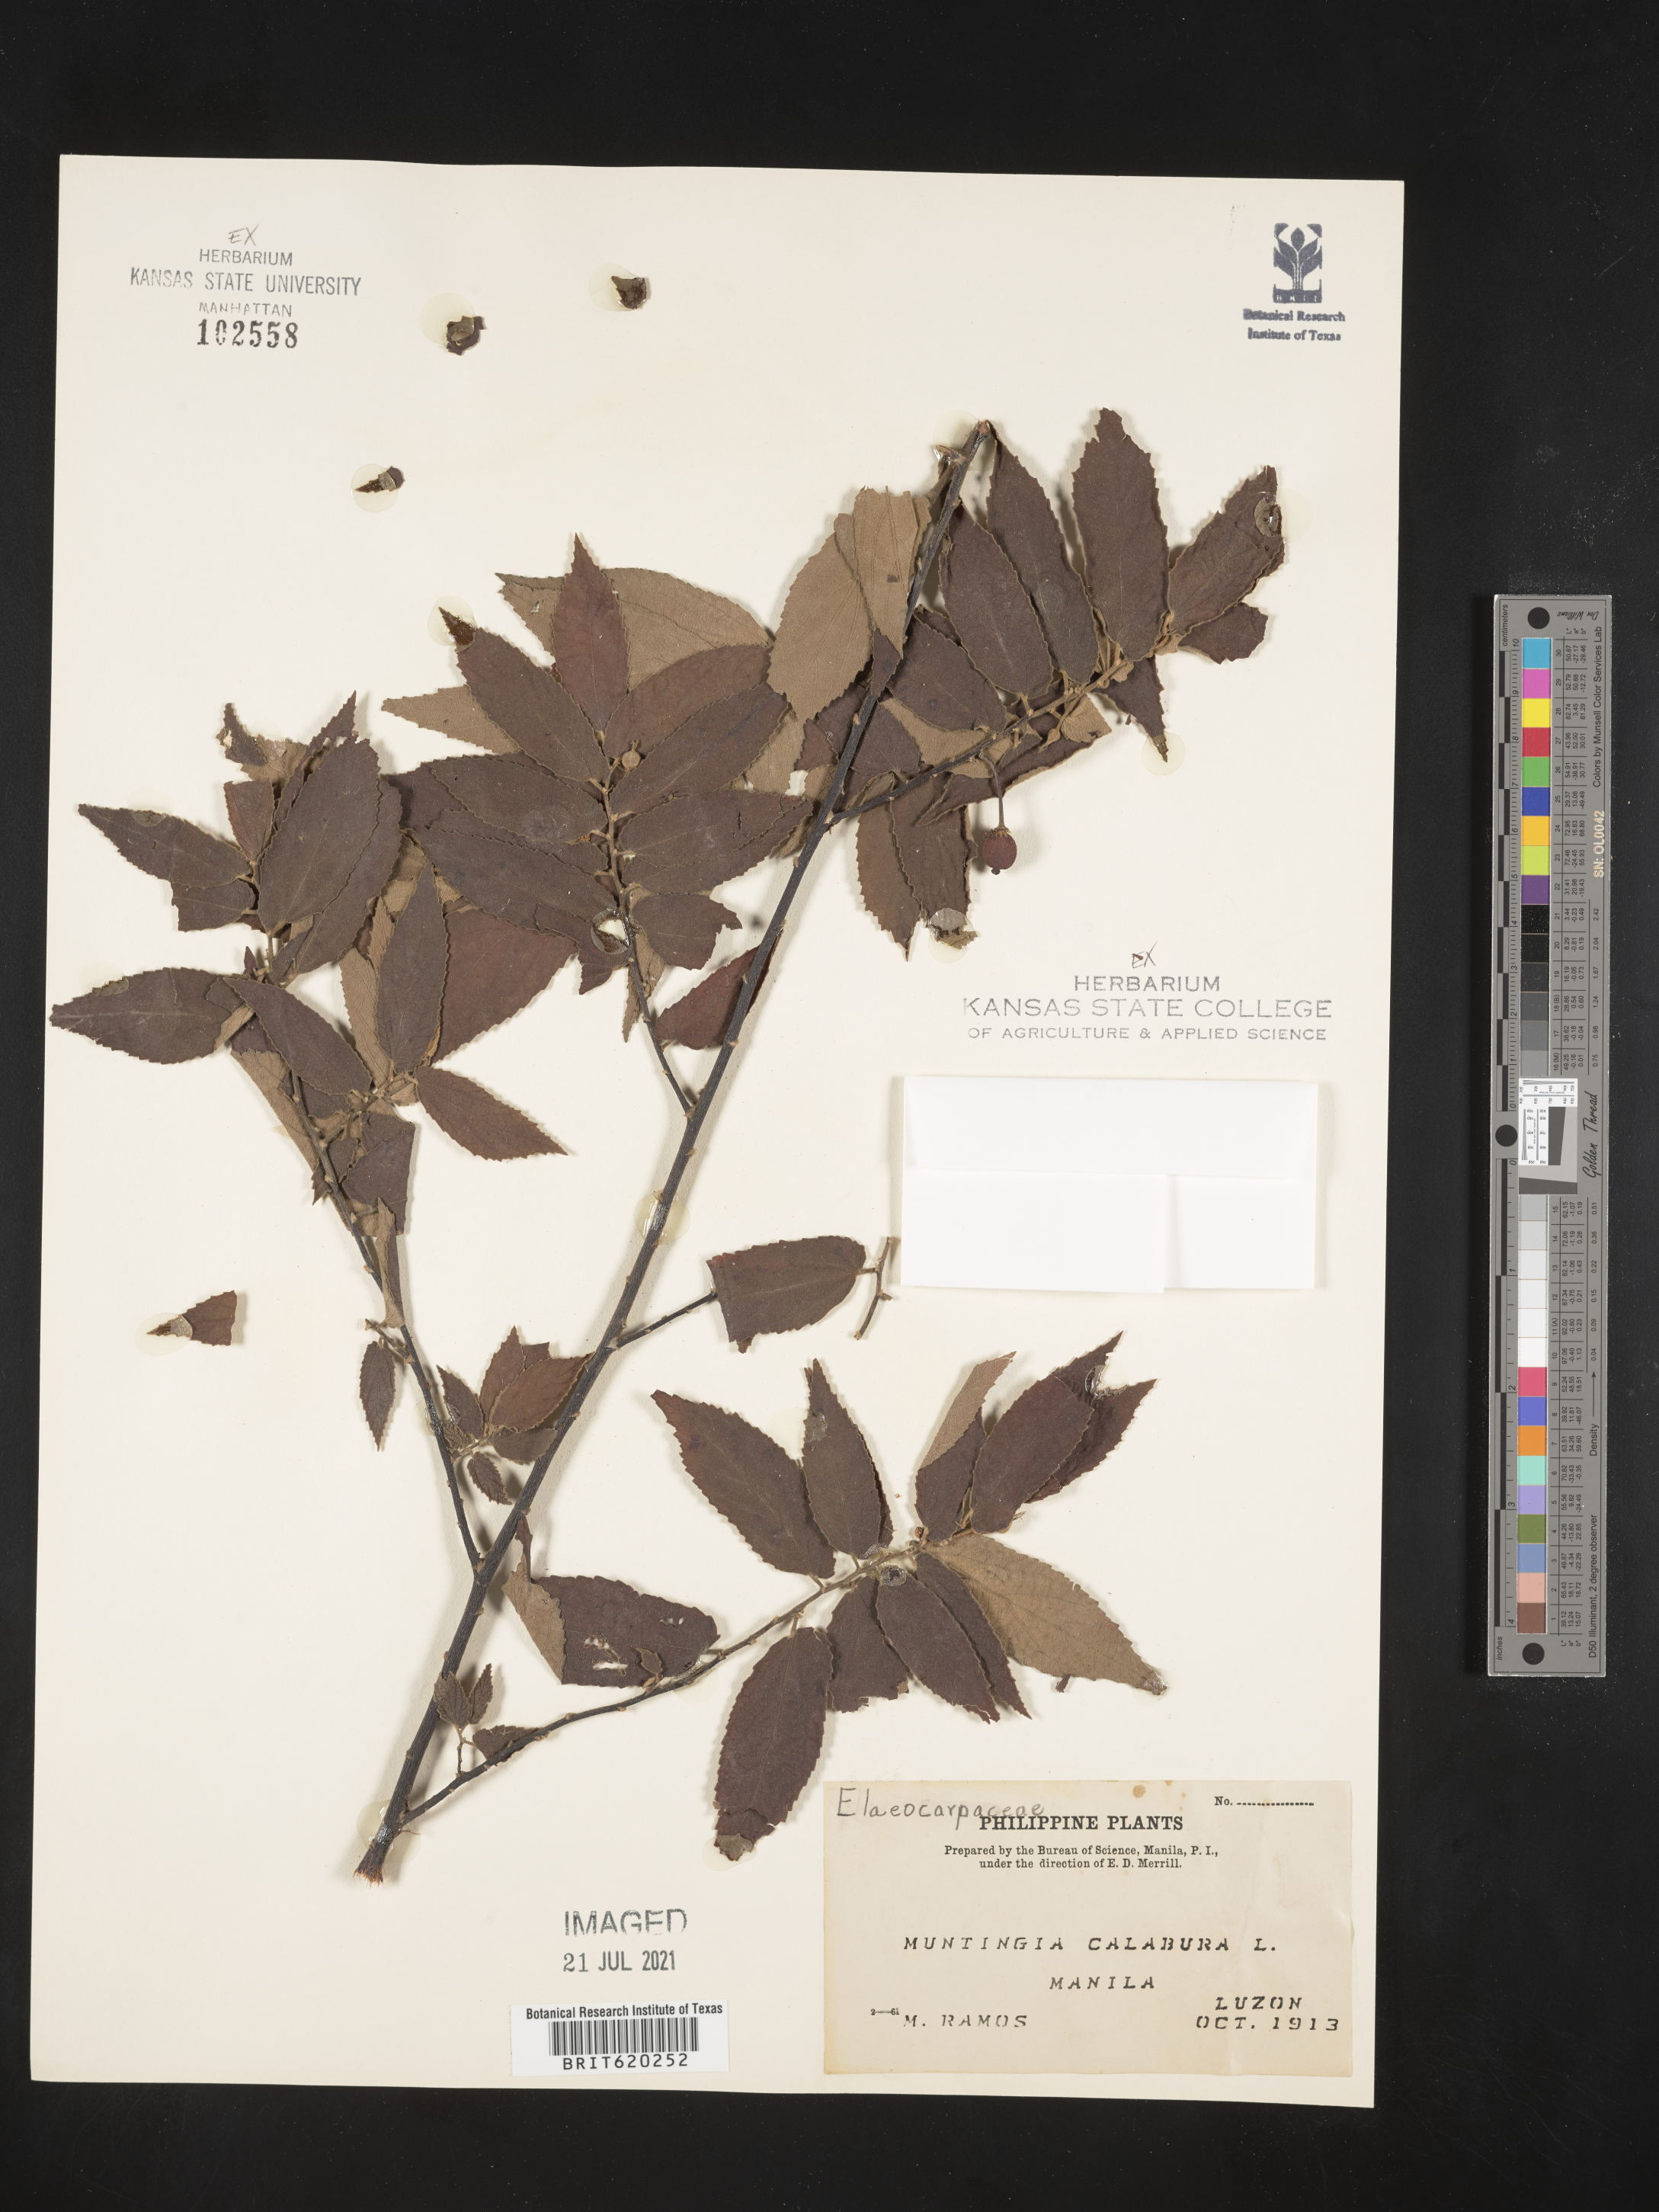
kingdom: Plantae
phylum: Tracheophyta
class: Magnoliopsida
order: Malvales
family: Muntingiaceae
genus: Muntingia
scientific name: Muntingia calabura
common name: Strawberrytree
